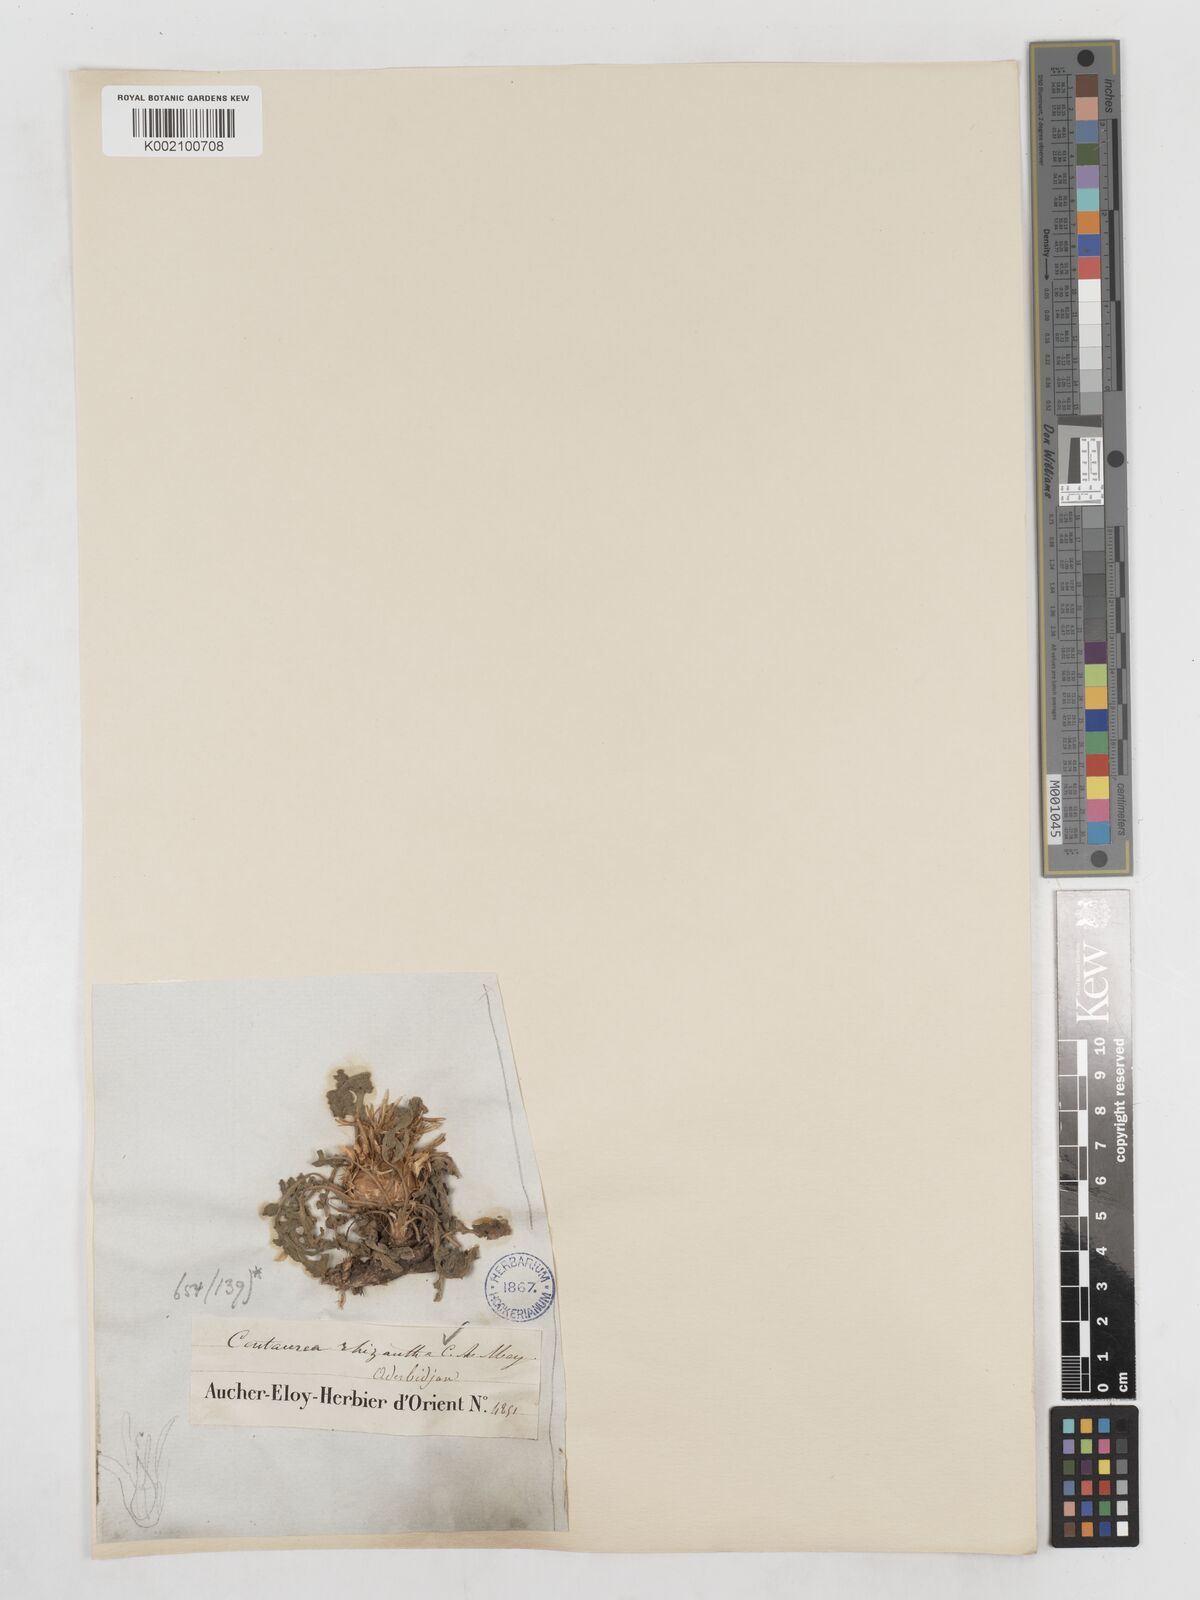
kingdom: Plantae
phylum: Tracheophyta
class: Magnoliopsida
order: Asterales
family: Asteraceae
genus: Centaurea
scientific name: Centaurea rhizantha
